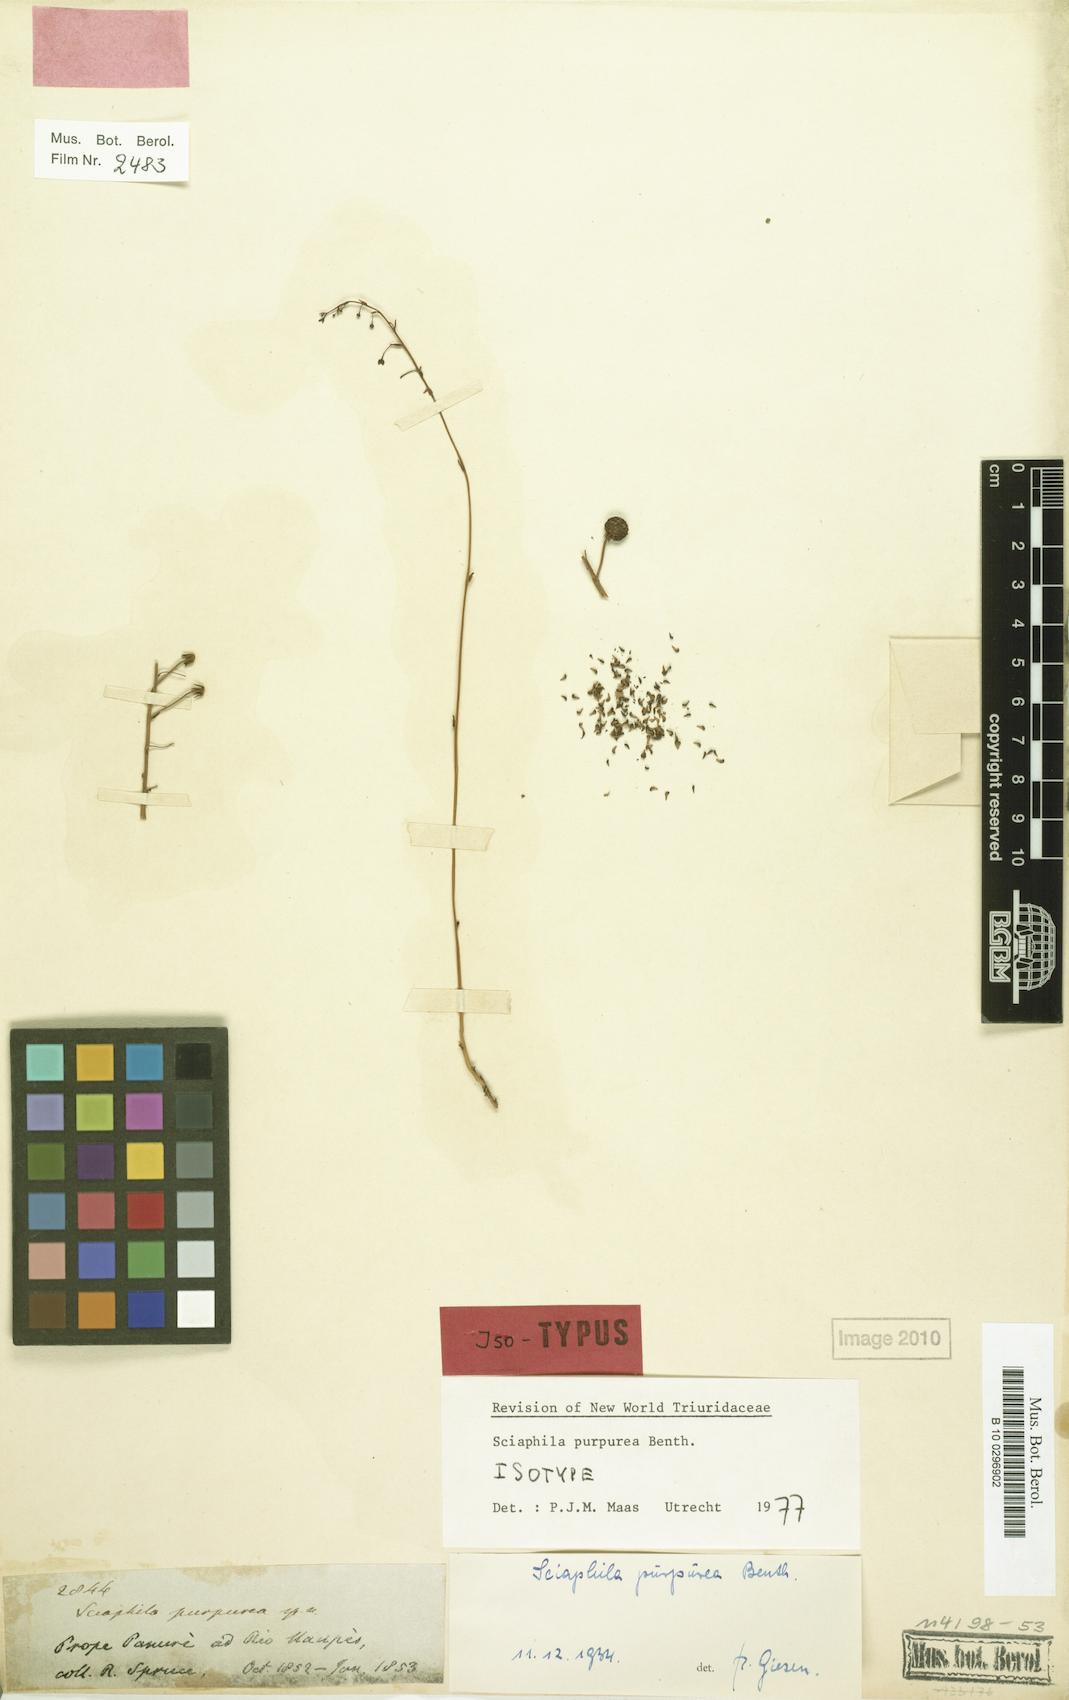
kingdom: Plantae
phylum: Tracheophyta
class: Liliopsida
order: Pandanales
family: Triuridaceae
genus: Sciaphila
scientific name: Sciaphila purpurea
